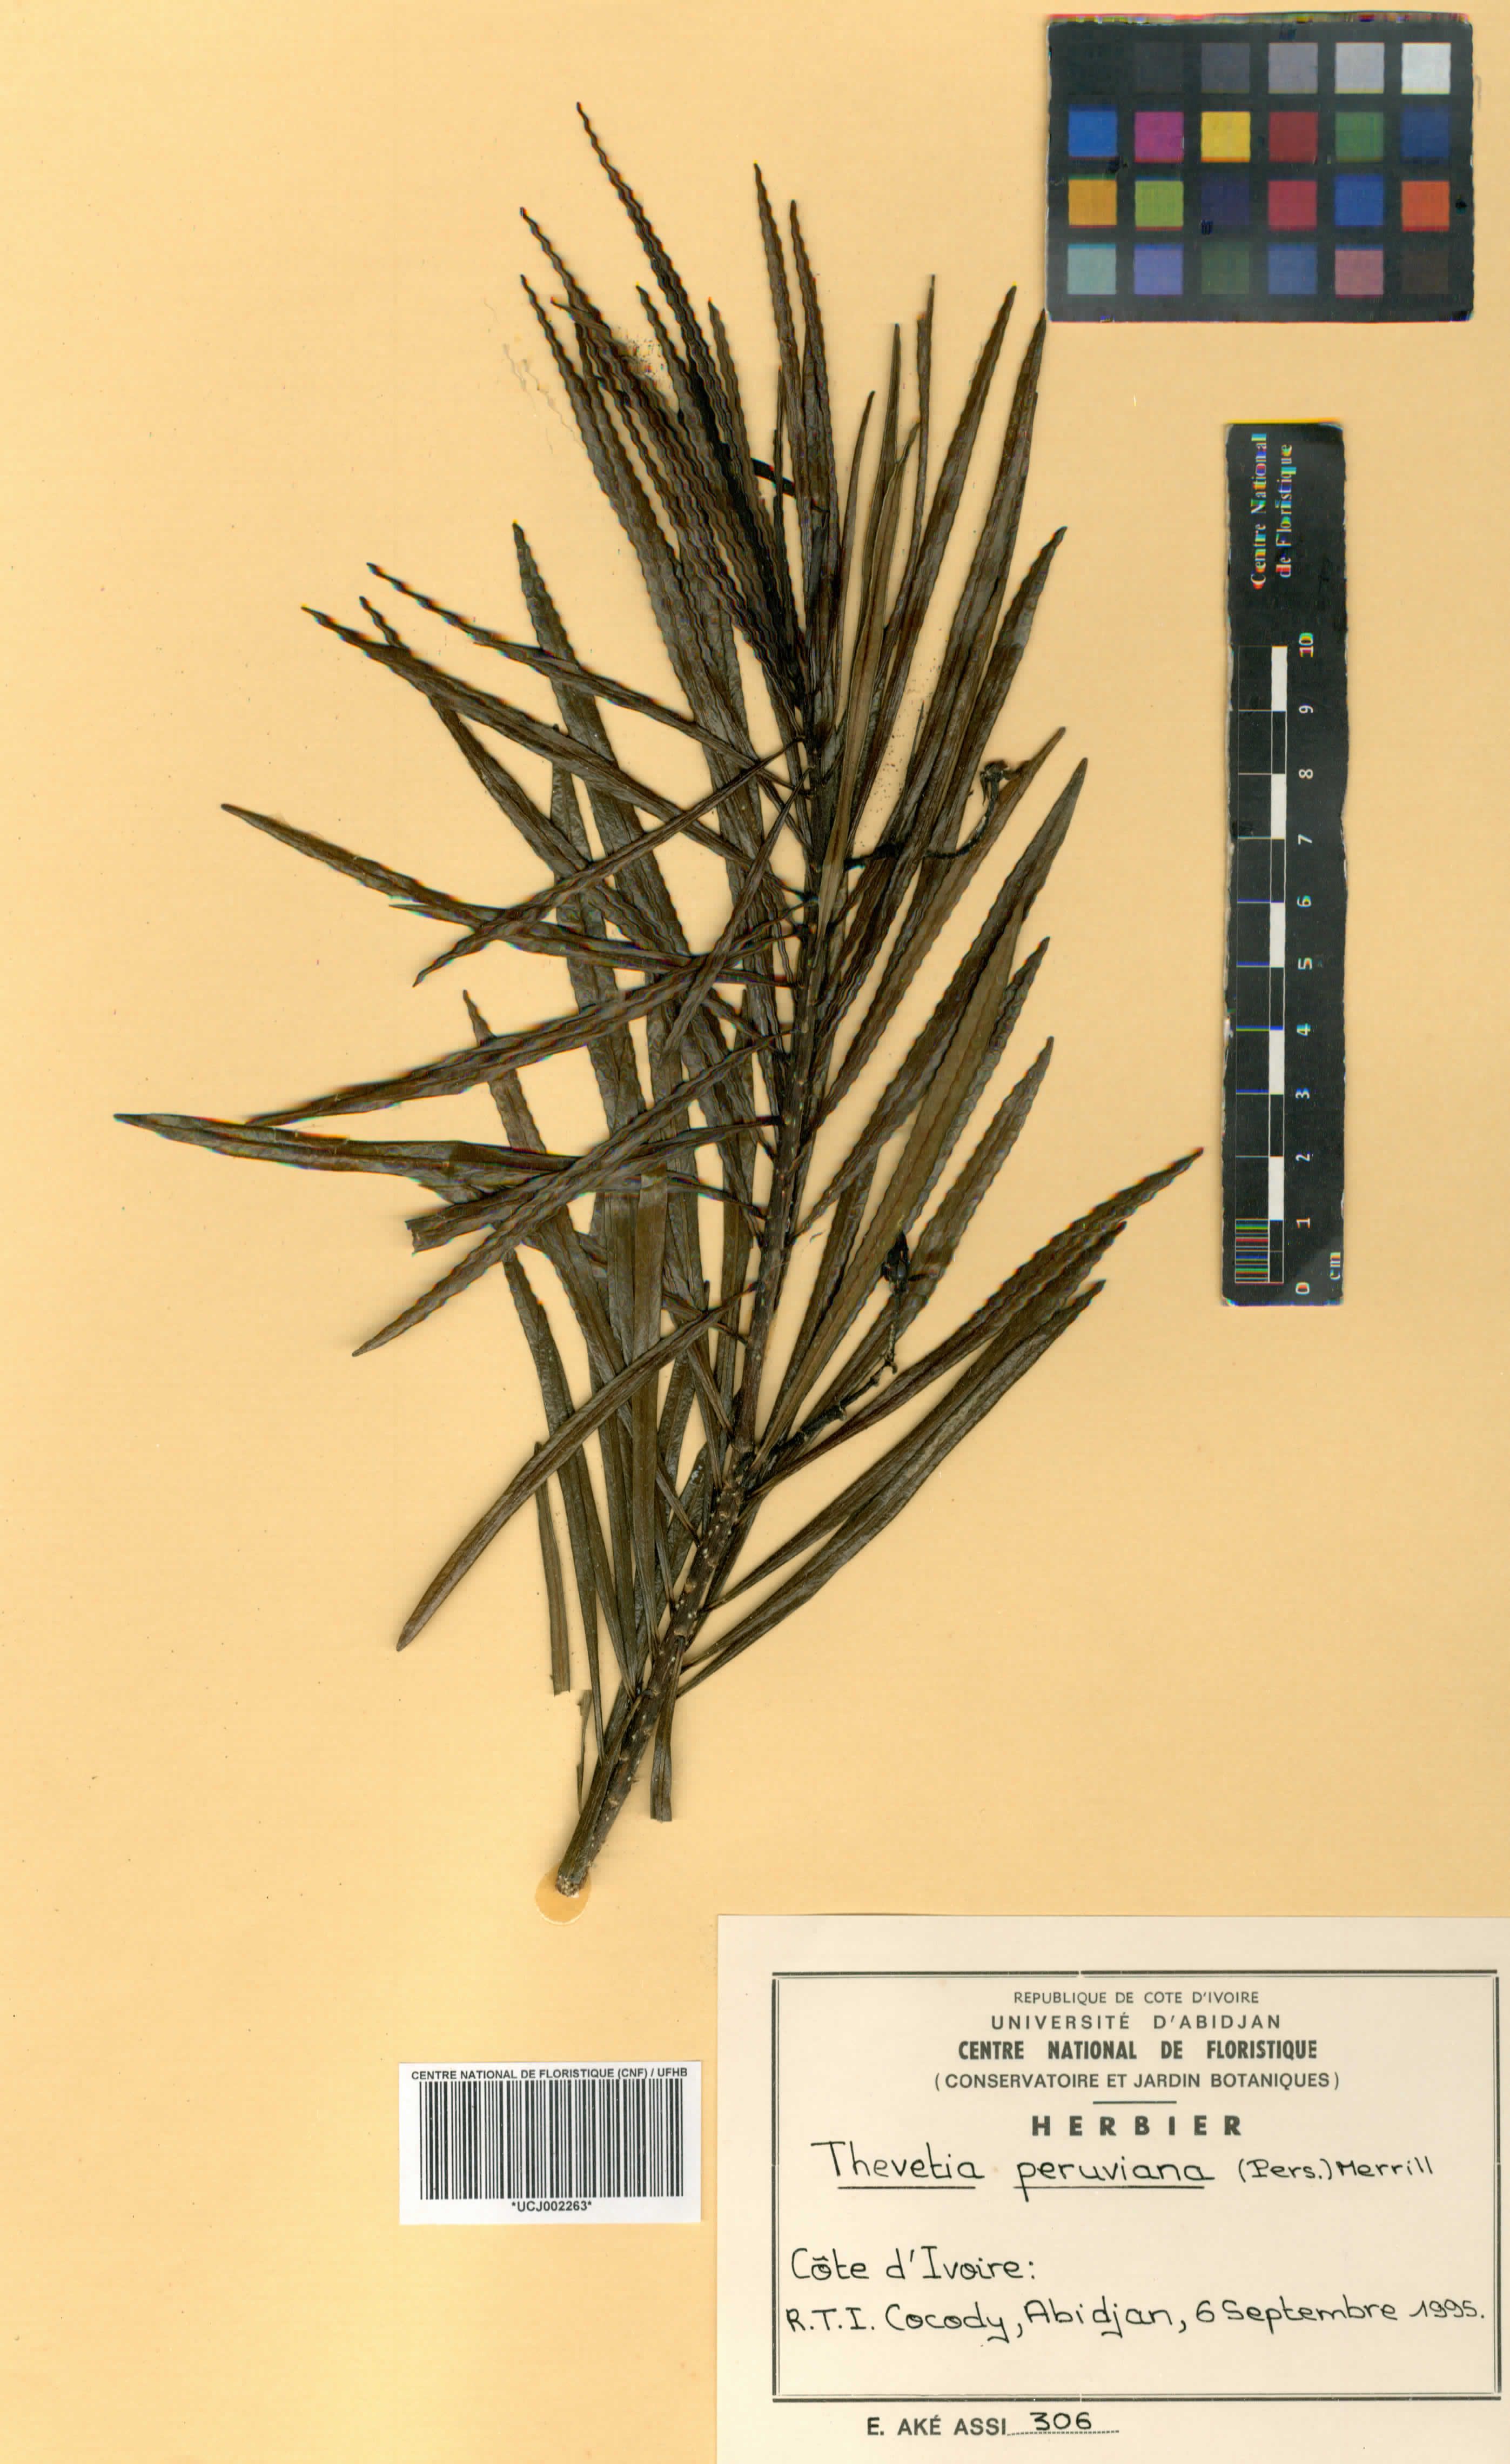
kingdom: Plantae
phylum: Tracheophyta
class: Magnoliopsida
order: Gentianales
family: Apocynaceae
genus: Cascabela
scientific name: Cascabela thevetia
